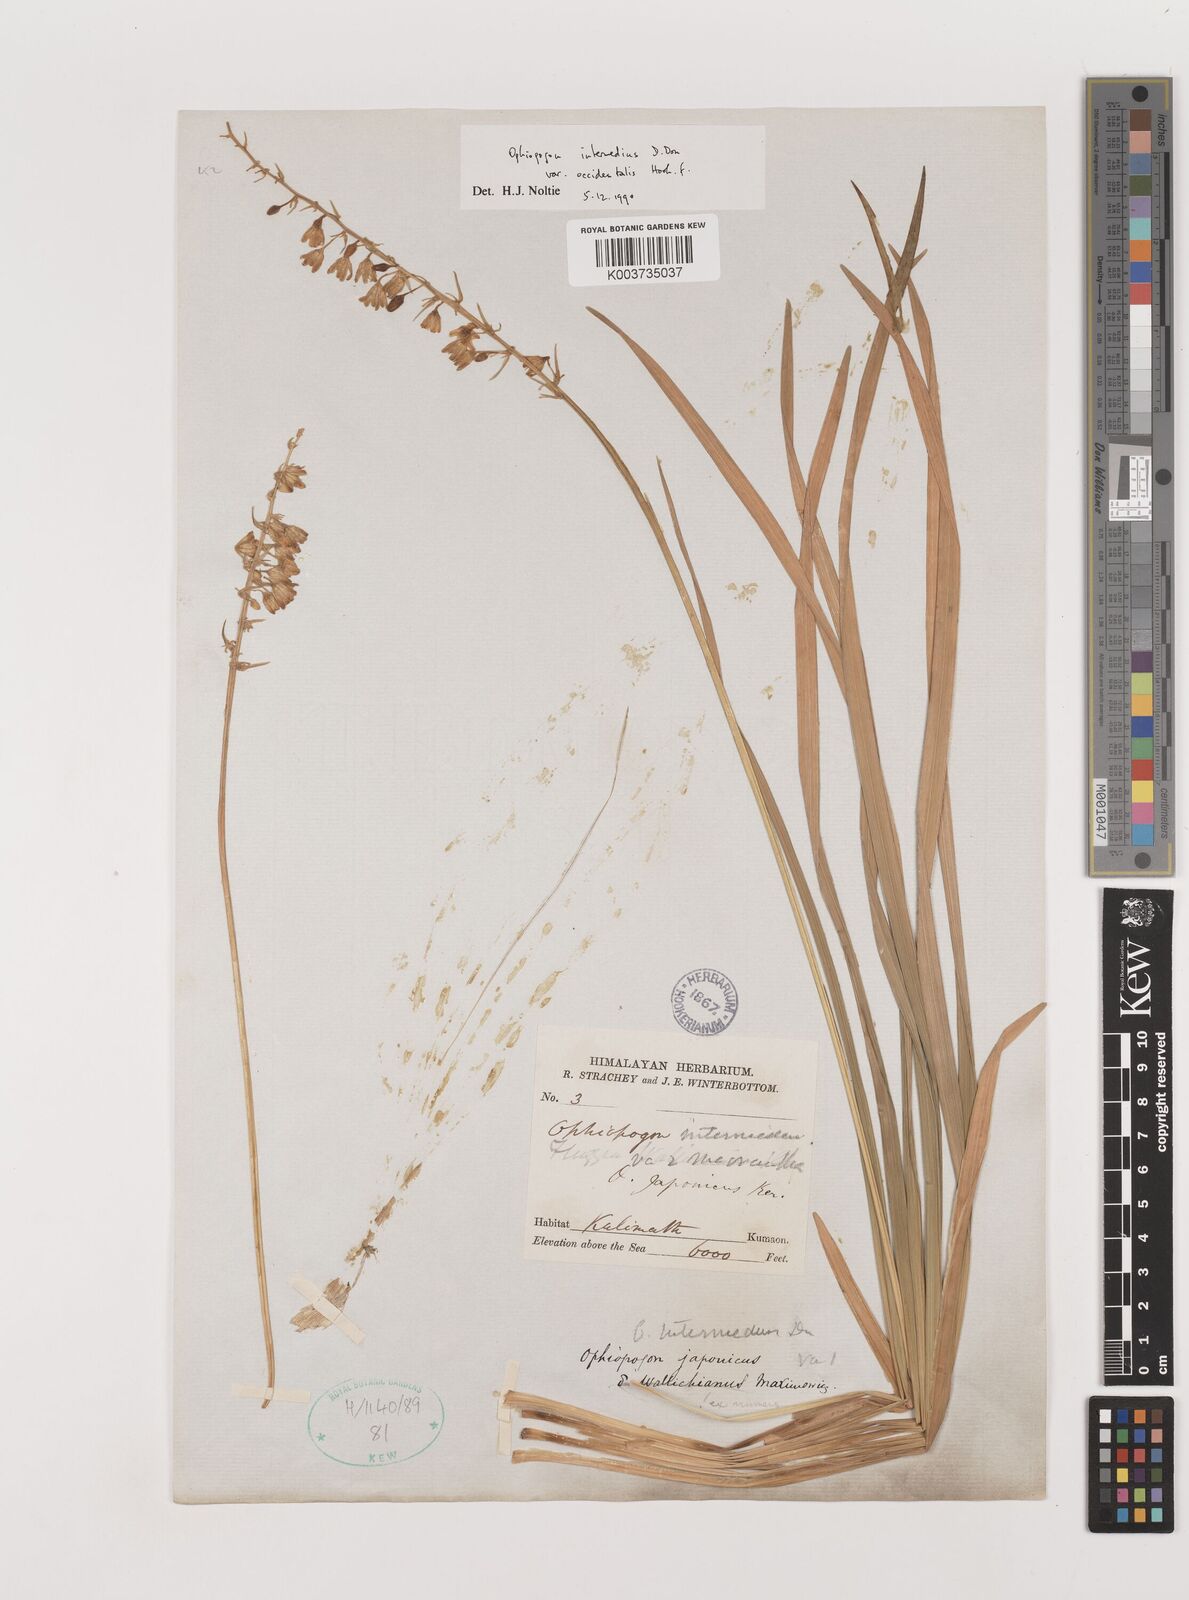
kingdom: Plantae
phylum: Tracheophyta
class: Liliopsida
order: Asparagales
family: Asparagaceae
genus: Ophiopogon
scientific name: Ophiopogon intermedius
